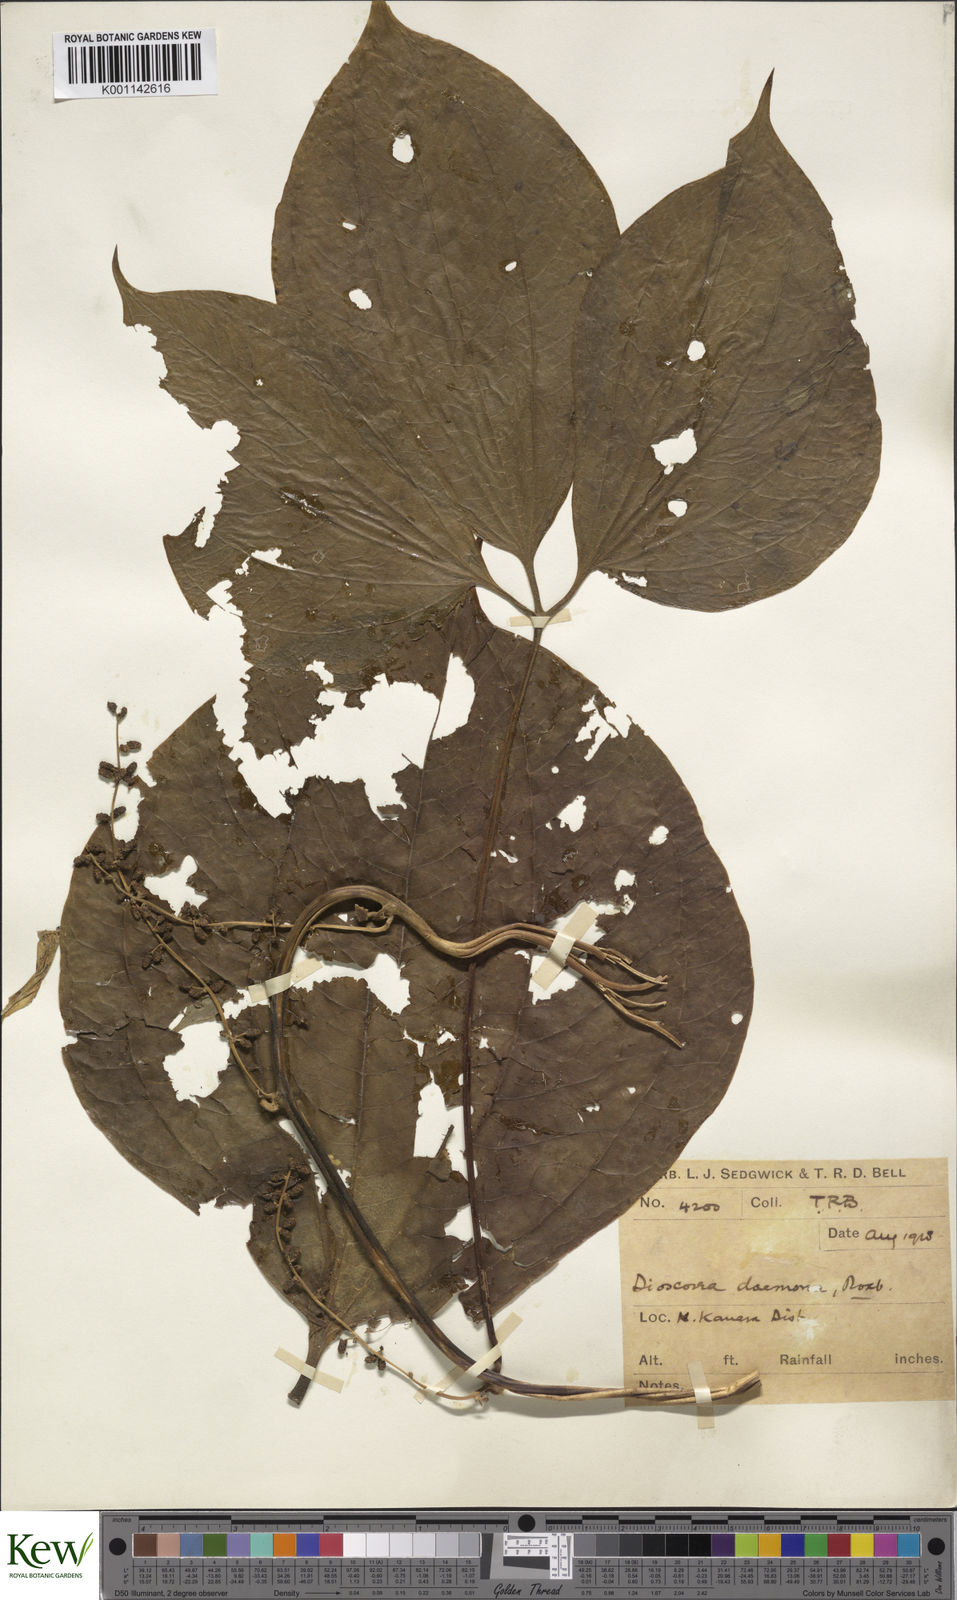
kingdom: Plantae
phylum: Tracheophyta
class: Liliopsida
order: Dioscoreales
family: Dioscoreaceae
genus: Dioscorea
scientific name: Dioscorea hispida
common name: Asiatic bitter yam
